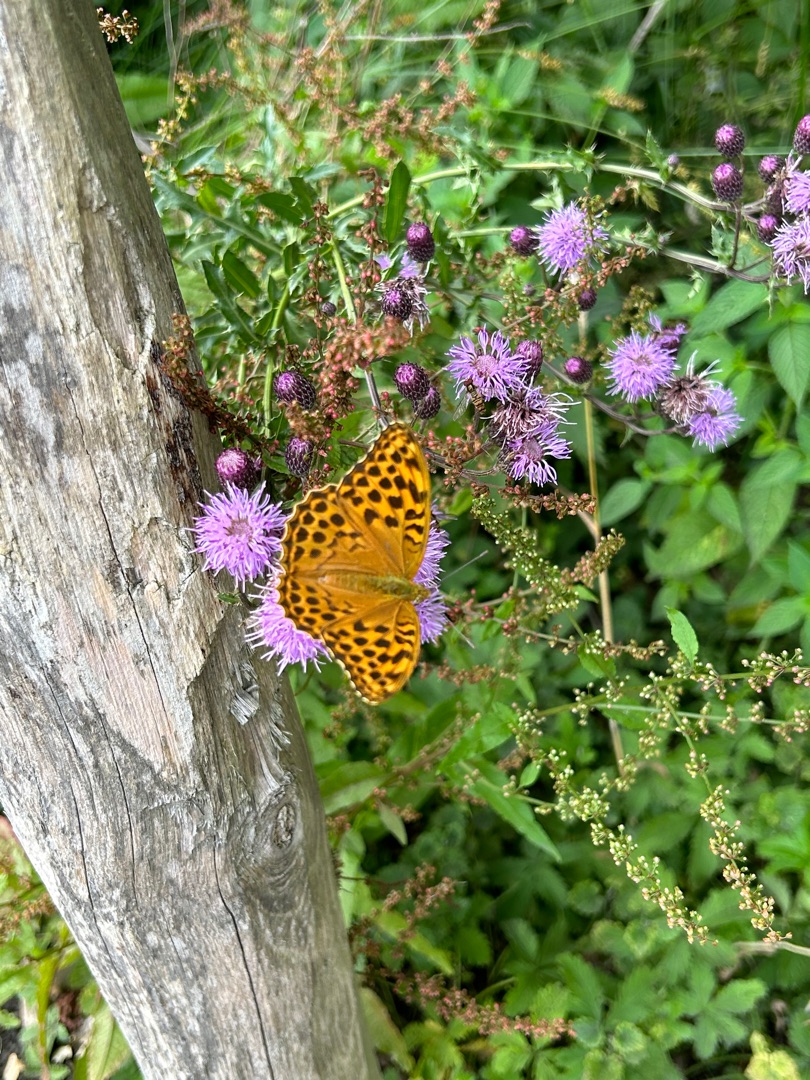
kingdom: Animalia
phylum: Arthropoda
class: Insecta
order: Lepidoptera
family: Nymphalidae
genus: Argynnis
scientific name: Argynnis paphia
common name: Kejserkåbe
